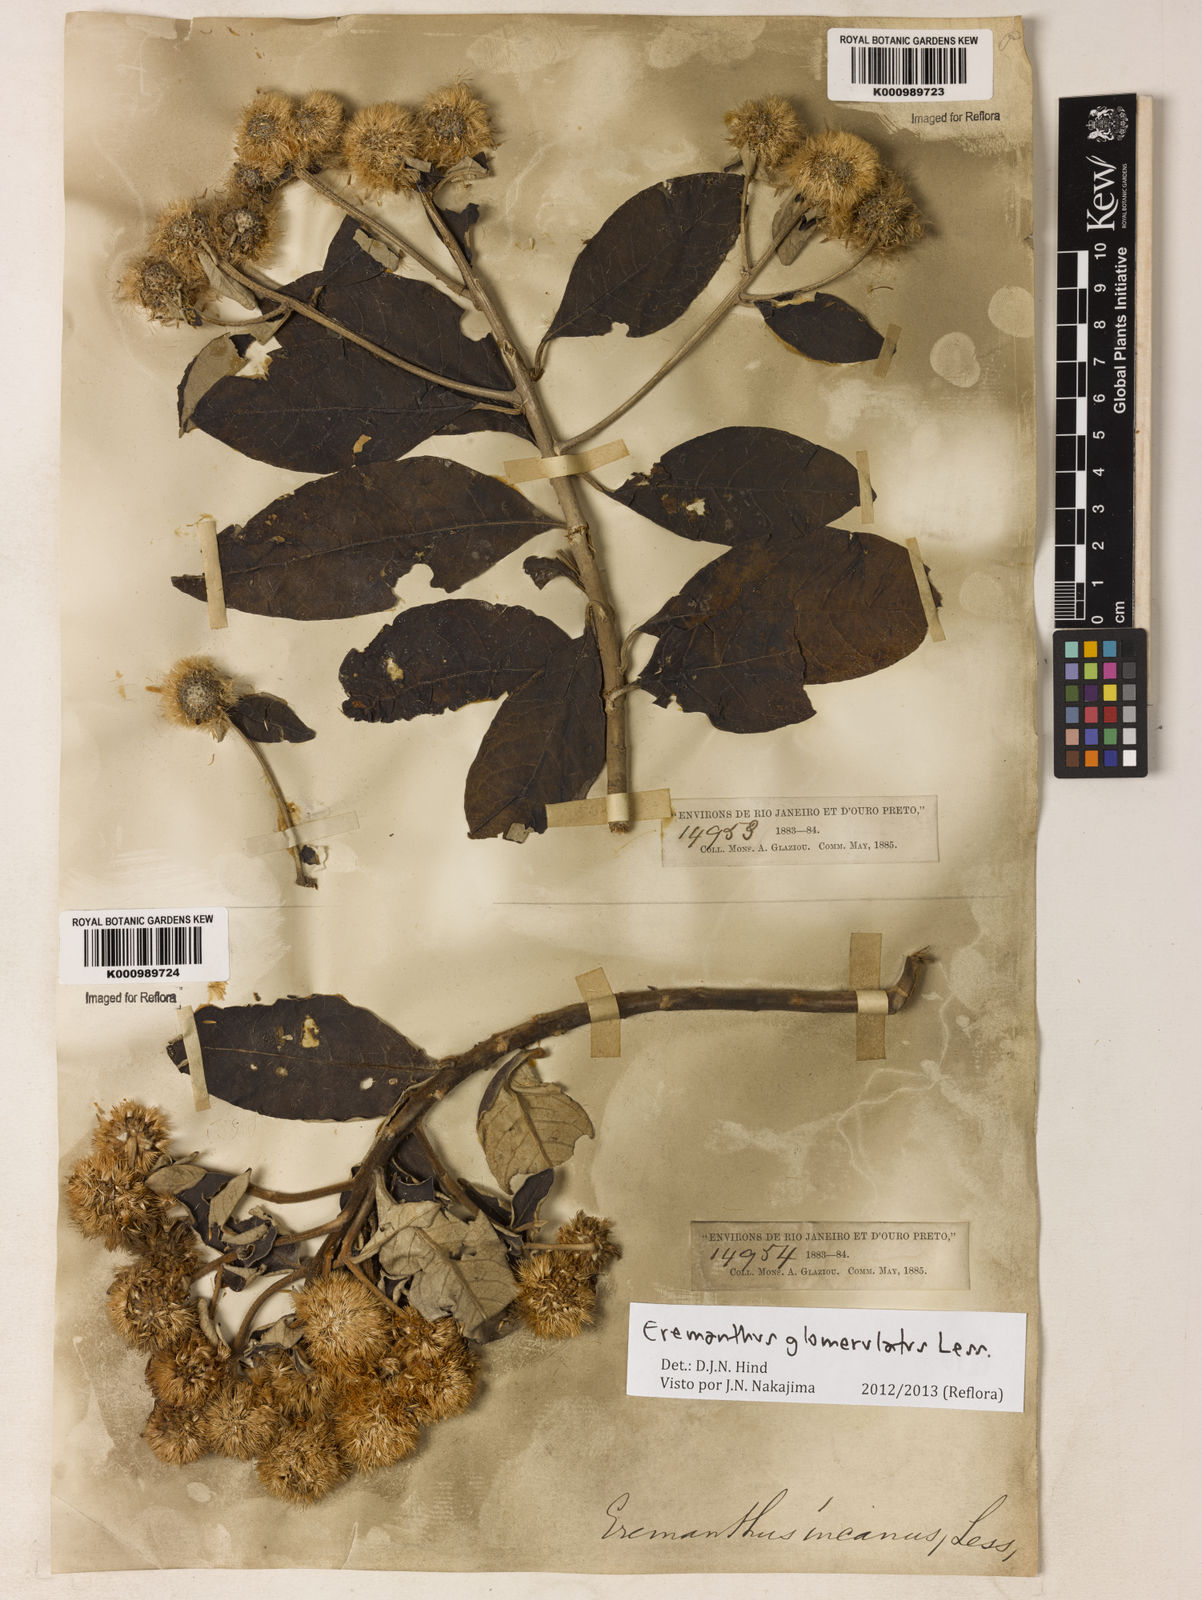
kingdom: Plantae
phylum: Tracheophyta
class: Magnoliopsida
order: Asterales
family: Asteraceae
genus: Eremanthus
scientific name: Eremanthus glomerulatus
